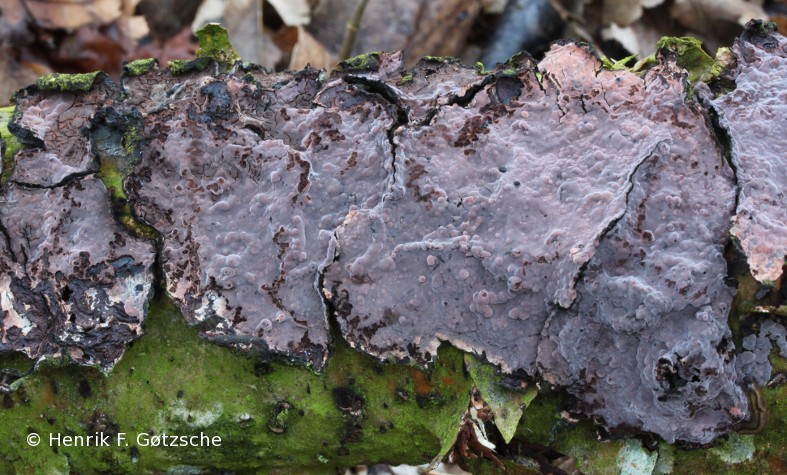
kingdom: Fungi
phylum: Basidiomycota
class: Agaricomycetes
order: Russulales
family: Peniophoraceae
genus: Peniophora
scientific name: Peniophora quercina
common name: ege-voksskind
